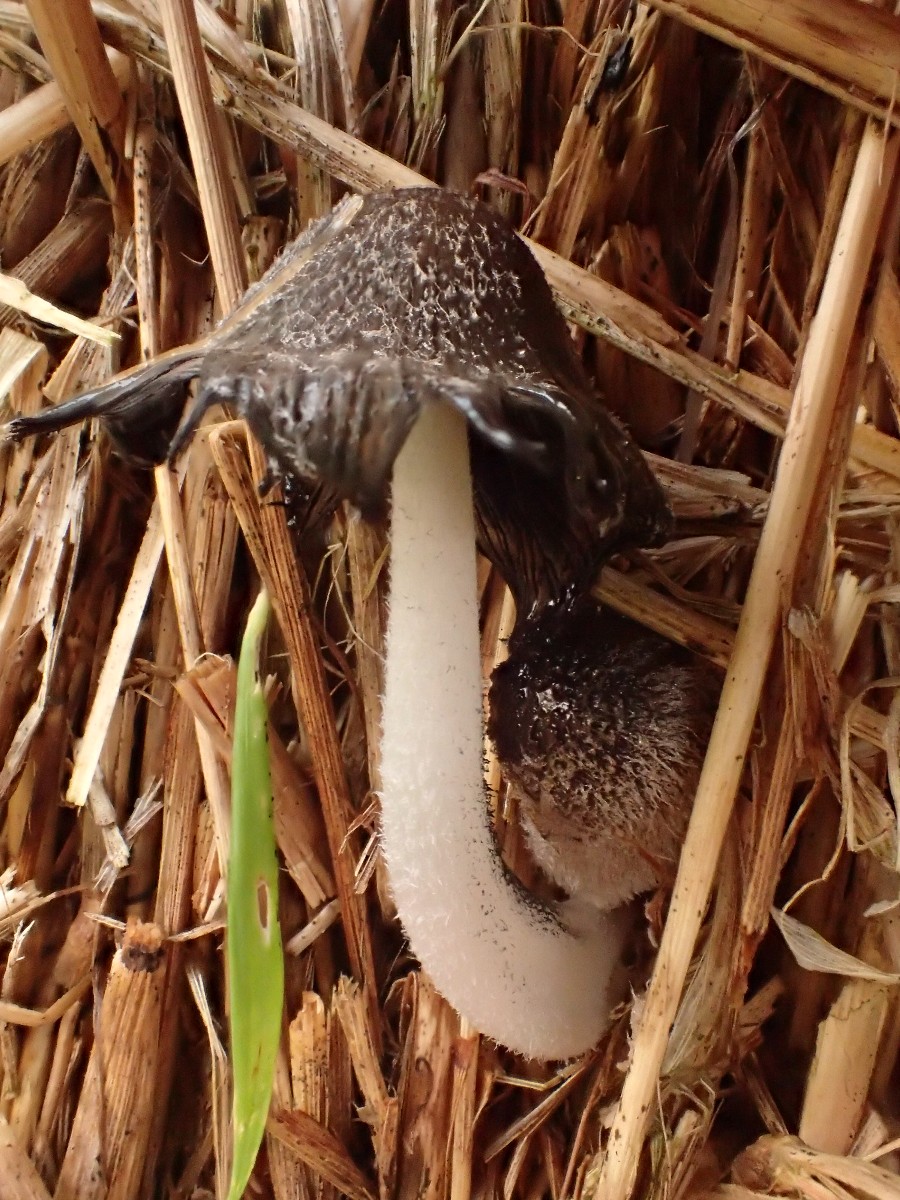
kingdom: Fungi
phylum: Basidiomycota
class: Agaricomycetes
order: Agaricales
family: Psathyrellaceae
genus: Coprinopsis
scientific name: Coprinopsis
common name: blækhat
